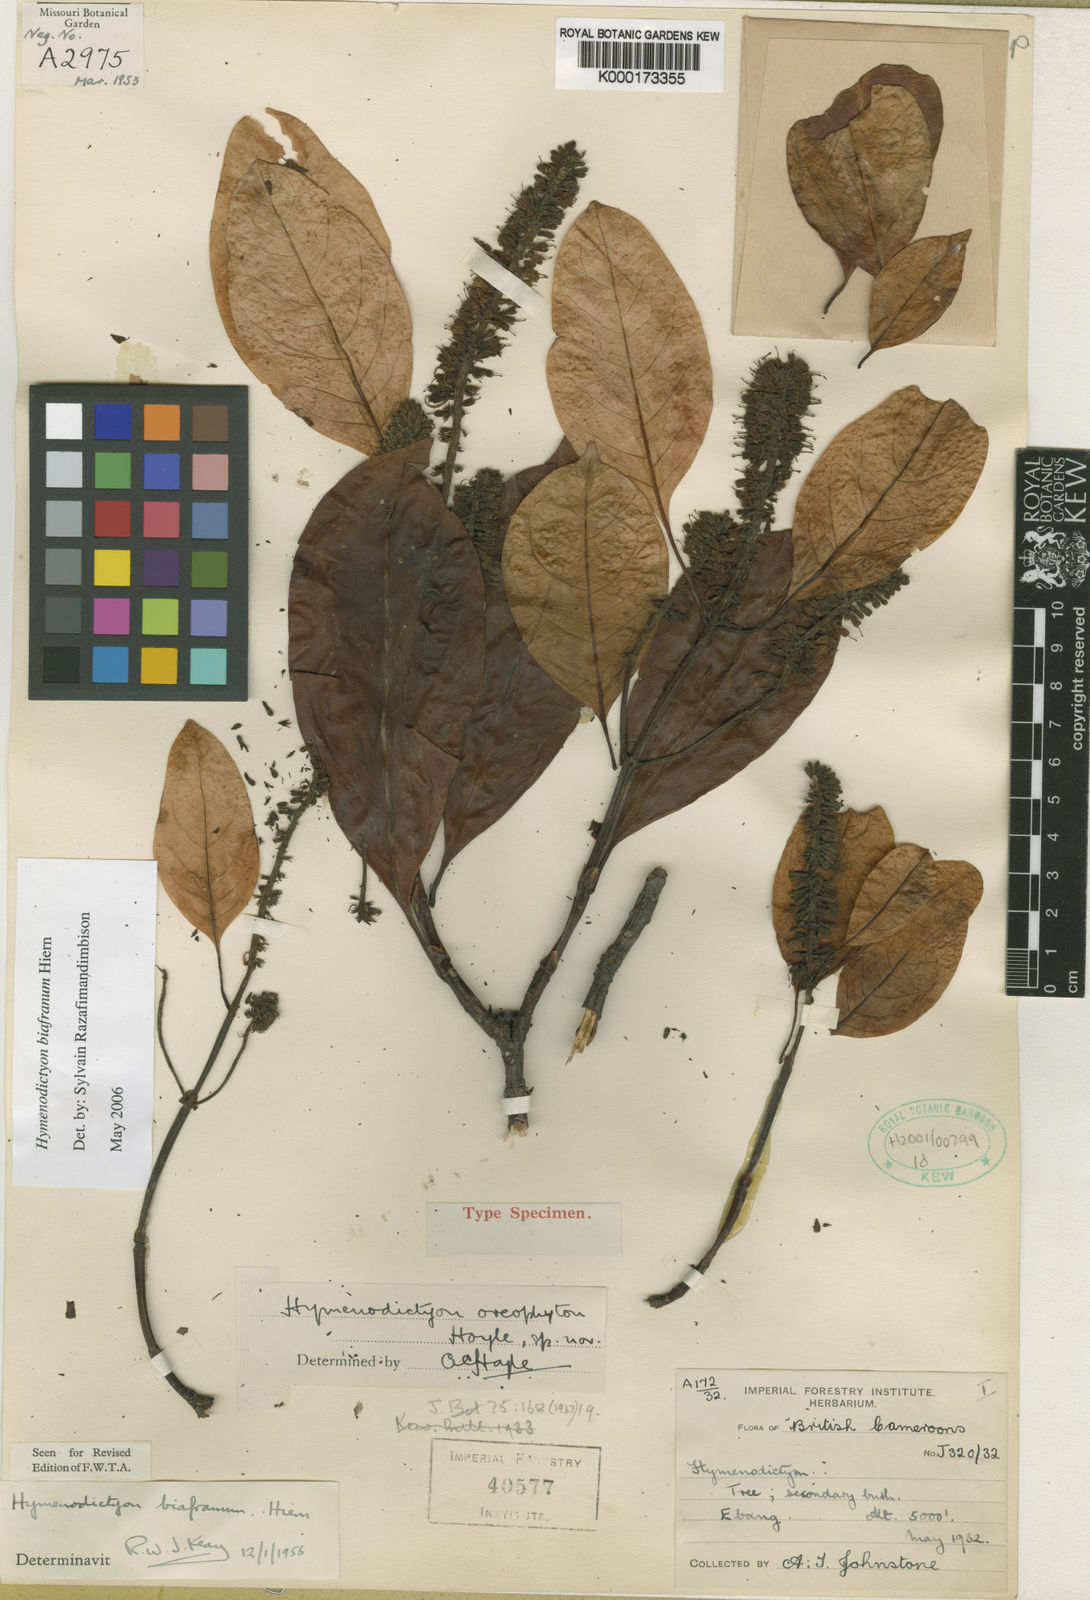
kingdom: Plantae
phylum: Tracheophyta
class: Magnoliopsida
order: Gentianales
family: Rubiaceae
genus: Hymenodictyon
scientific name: Hymenodictyon biafranum
